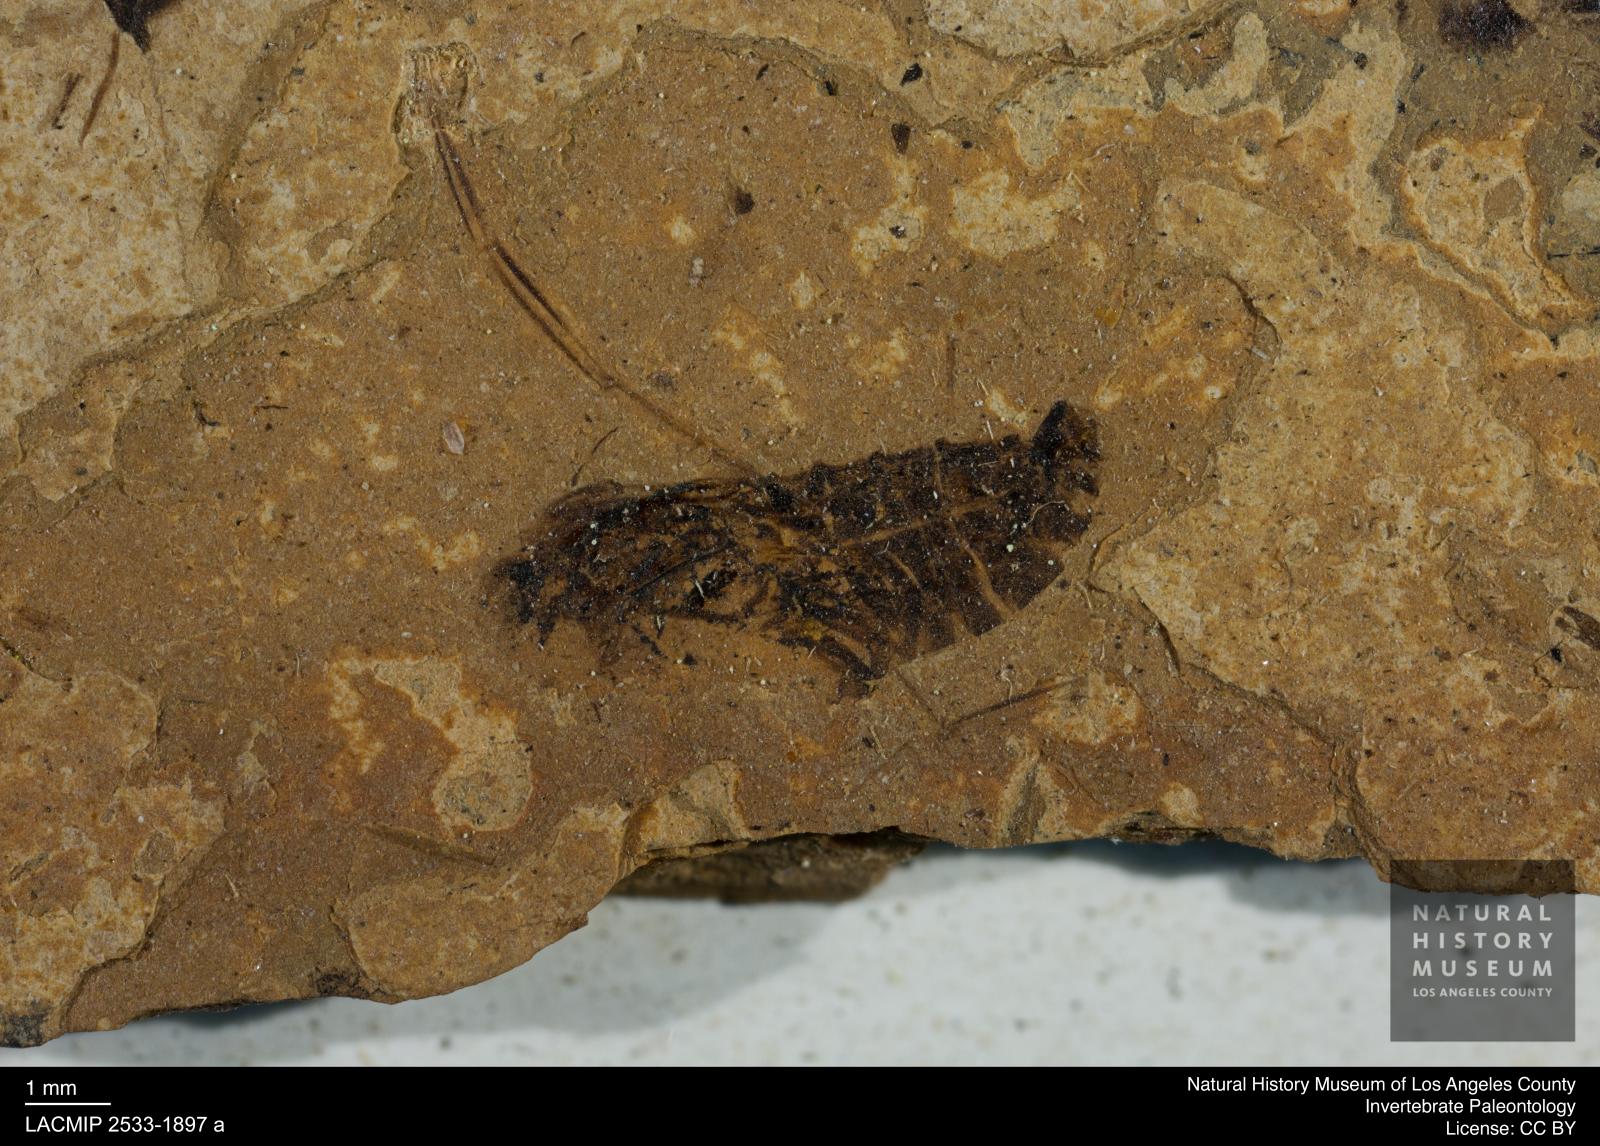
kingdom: Animalia
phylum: Arthropoda
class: Insecta
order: Hemiptera
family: Notonectidae
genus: Anisops
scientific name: Anisops Notonecta deichmuelleri
